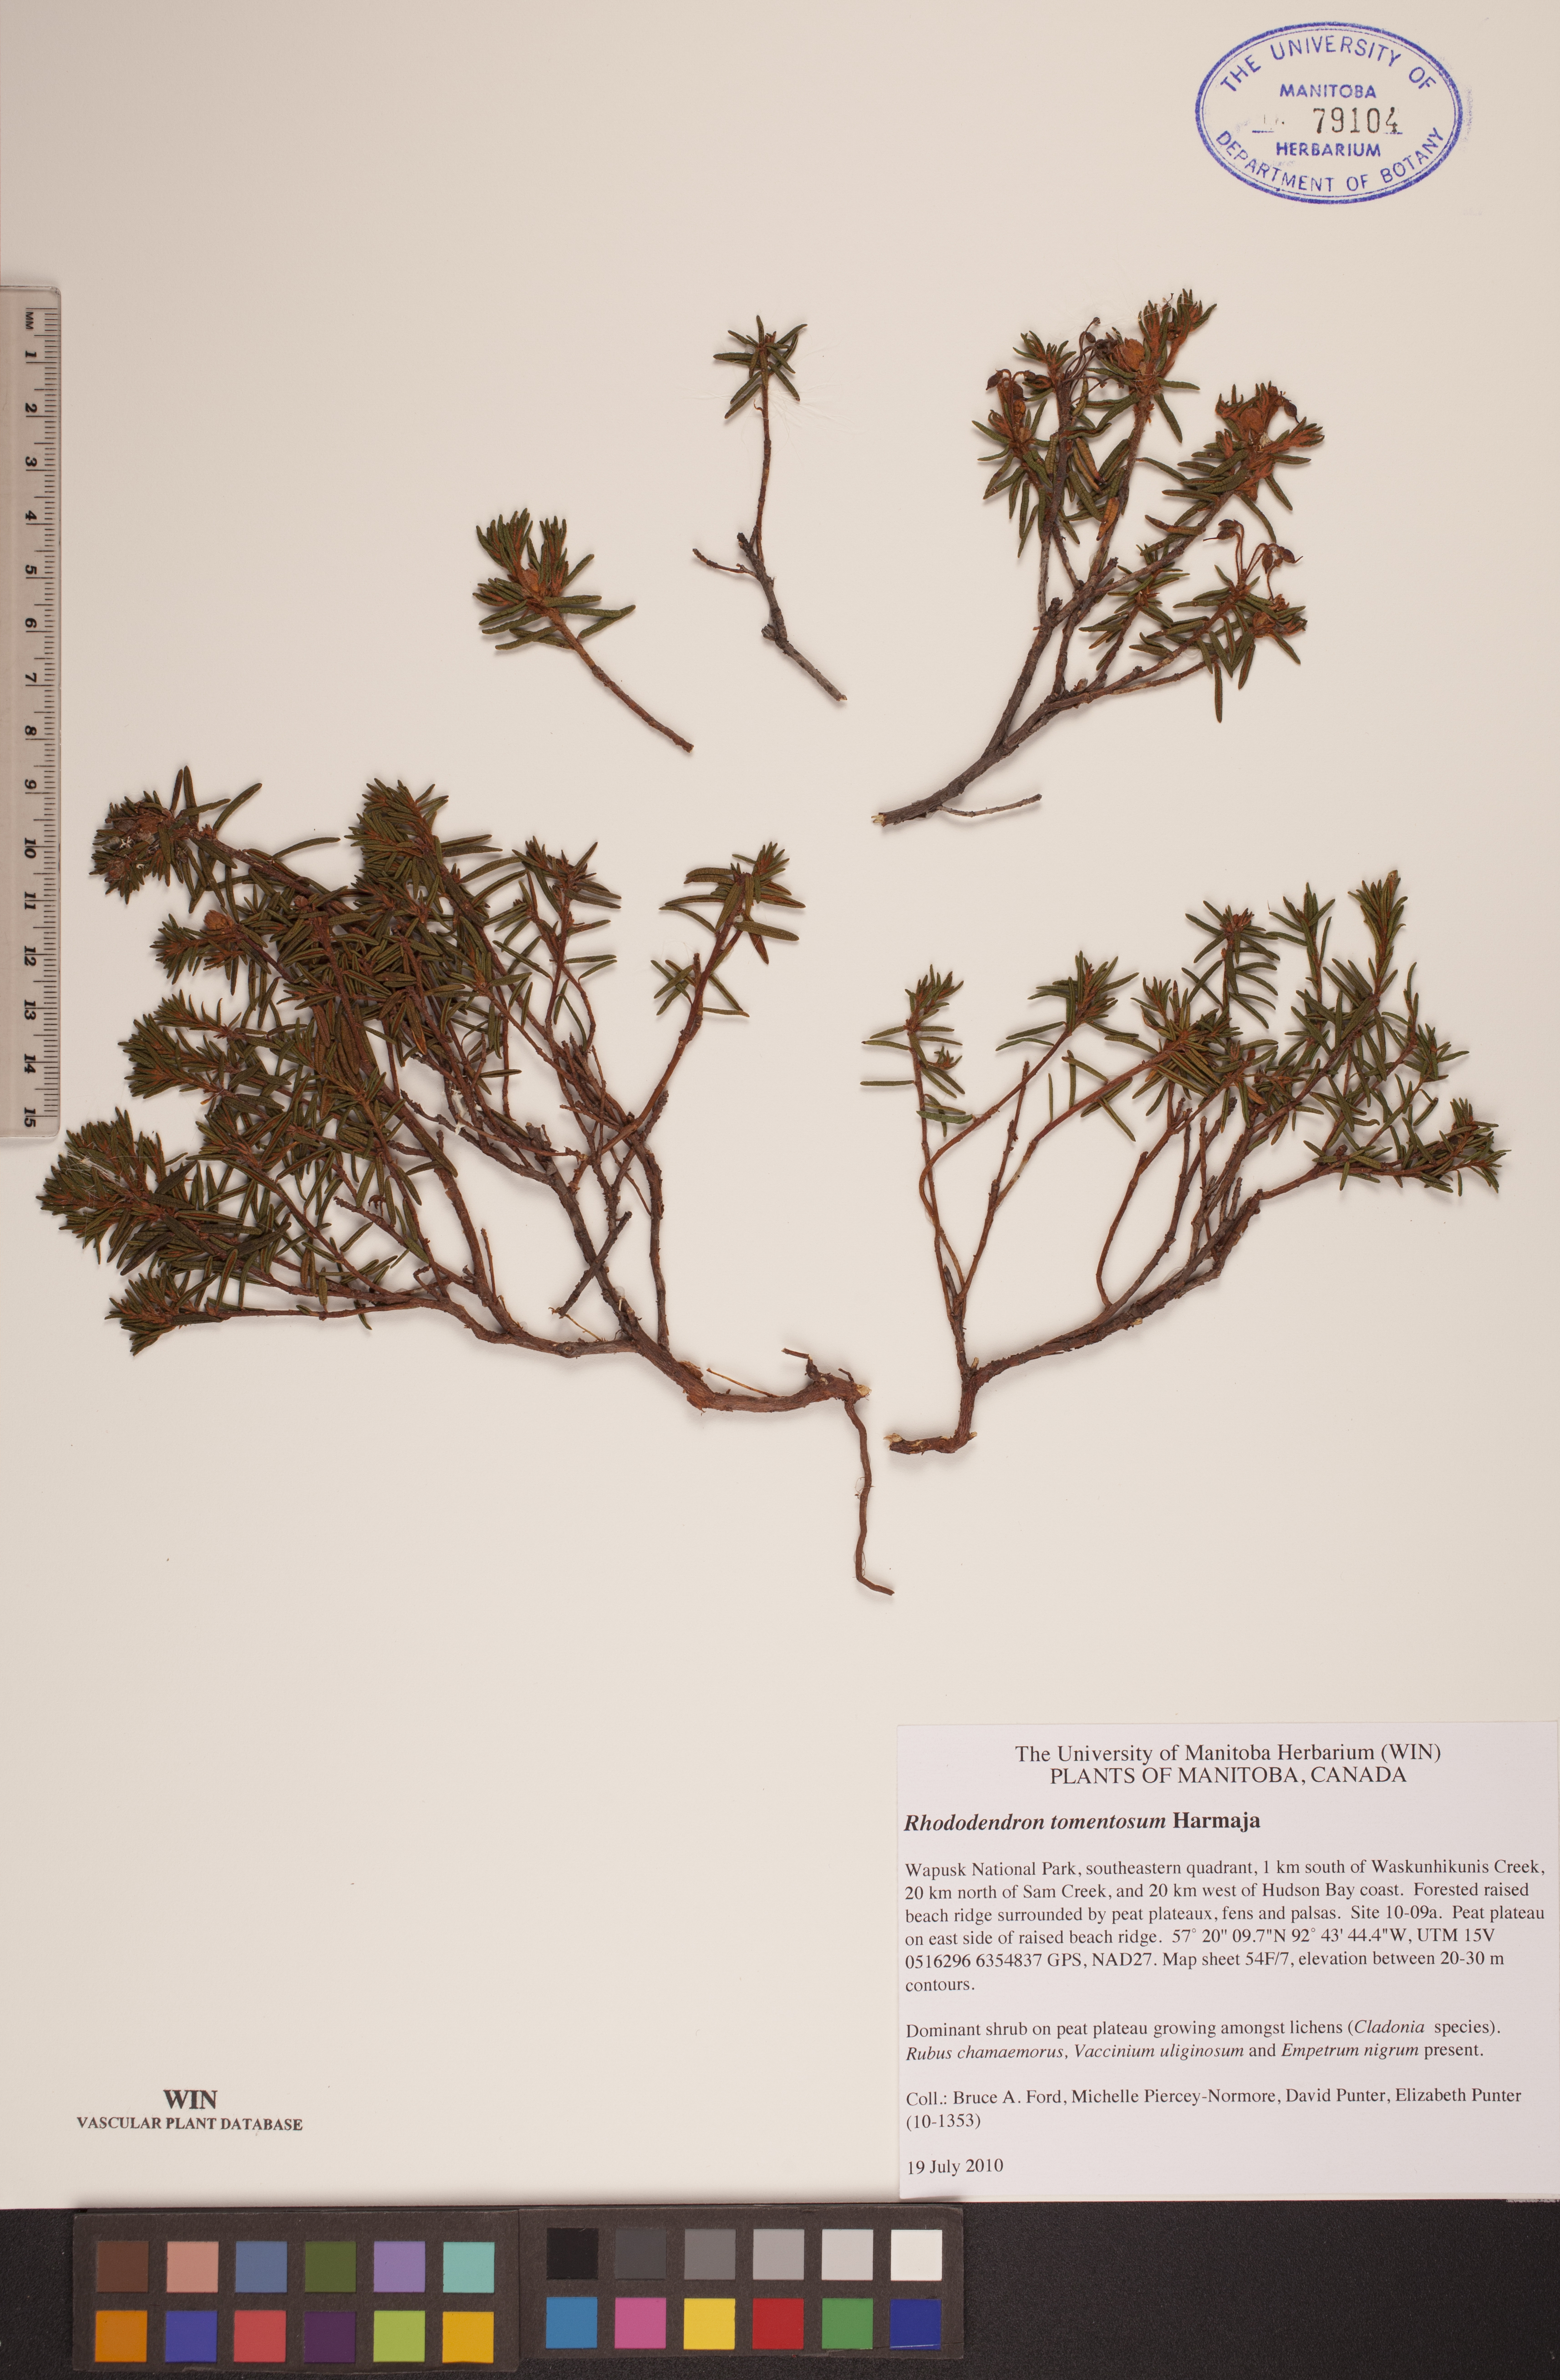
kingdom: Plantae
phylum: Tracheophyta
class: Magnoliopsida
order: Ericales
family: Ericaceae
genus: Rhododendron
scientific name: Rhododendron tomentosum
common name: Marsh labrador tea
